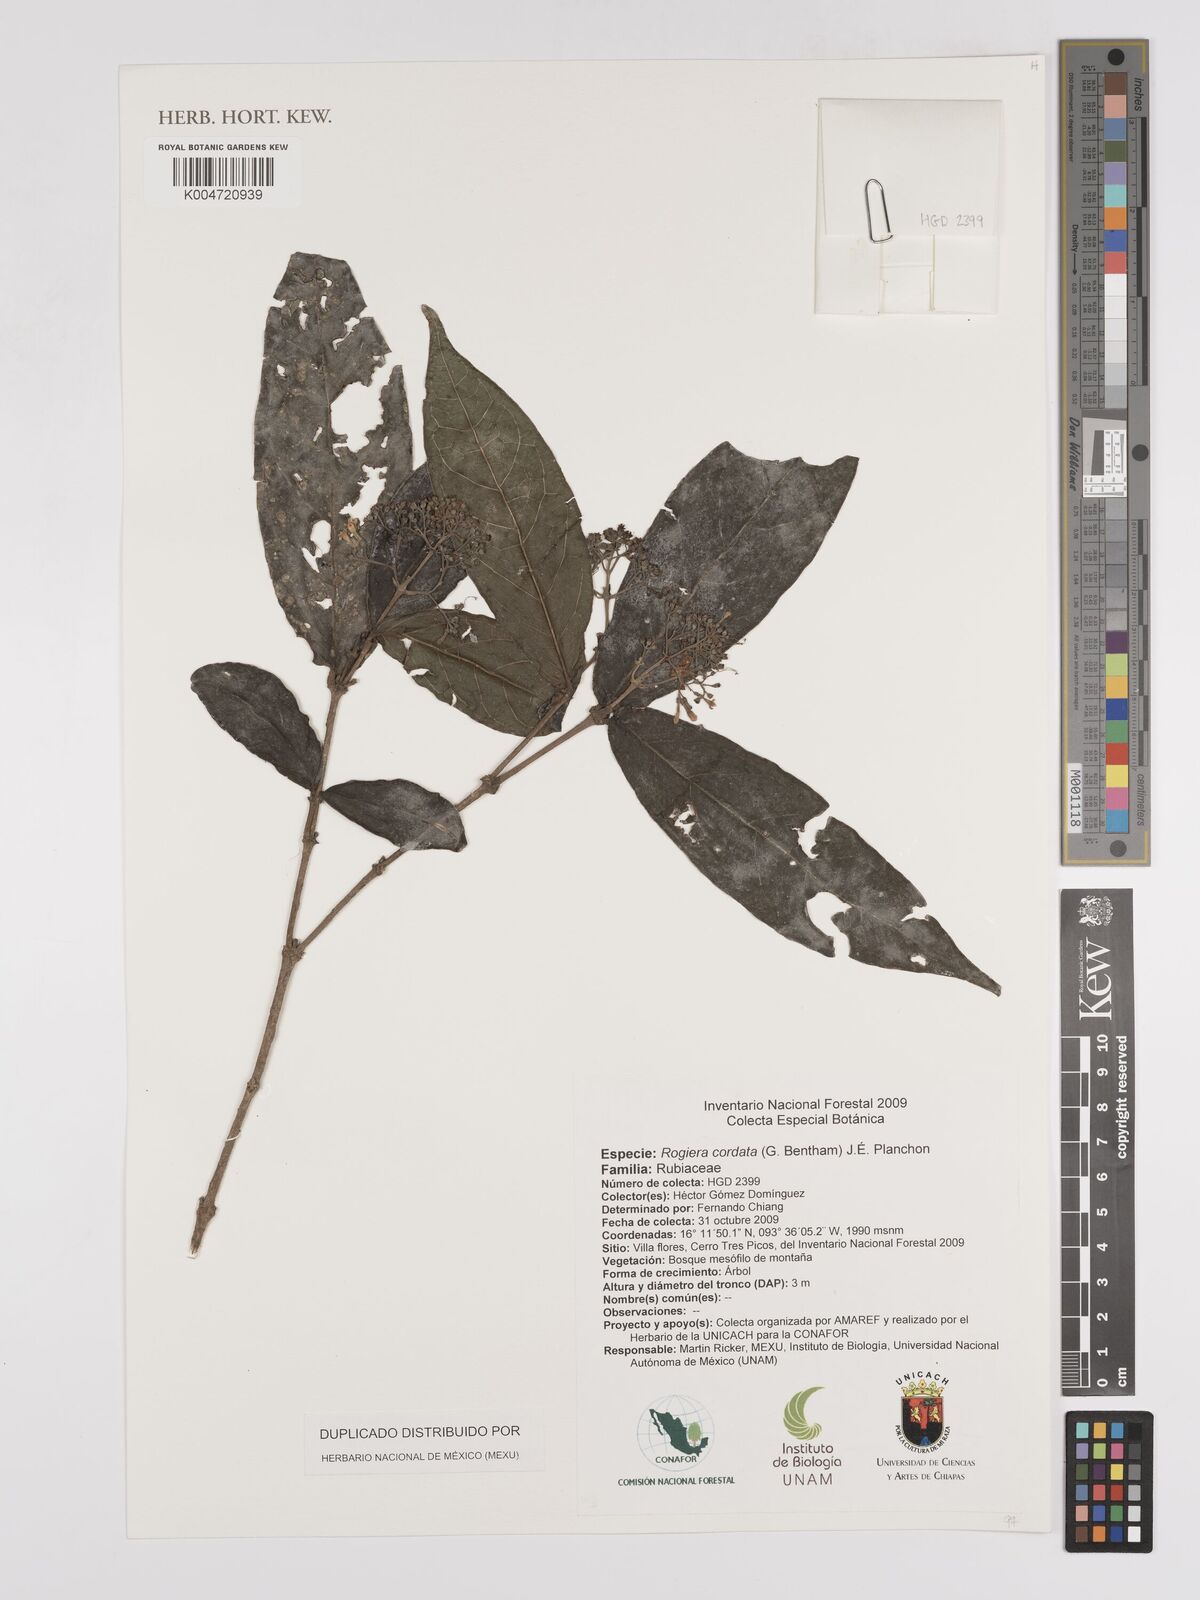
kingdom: Plantae
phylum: Tracheophyta
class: Magnoliopsida
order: Gentianales
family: Rubiaceae
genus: Rogiera
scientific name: Rogiera cordata
